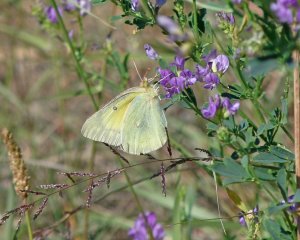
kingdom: Animalia
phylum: Arthropoda
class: Insecta
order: Lepidoptera
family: Pieridae
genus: Colias
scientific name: Colias philodice
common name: Clouded Sulphur
